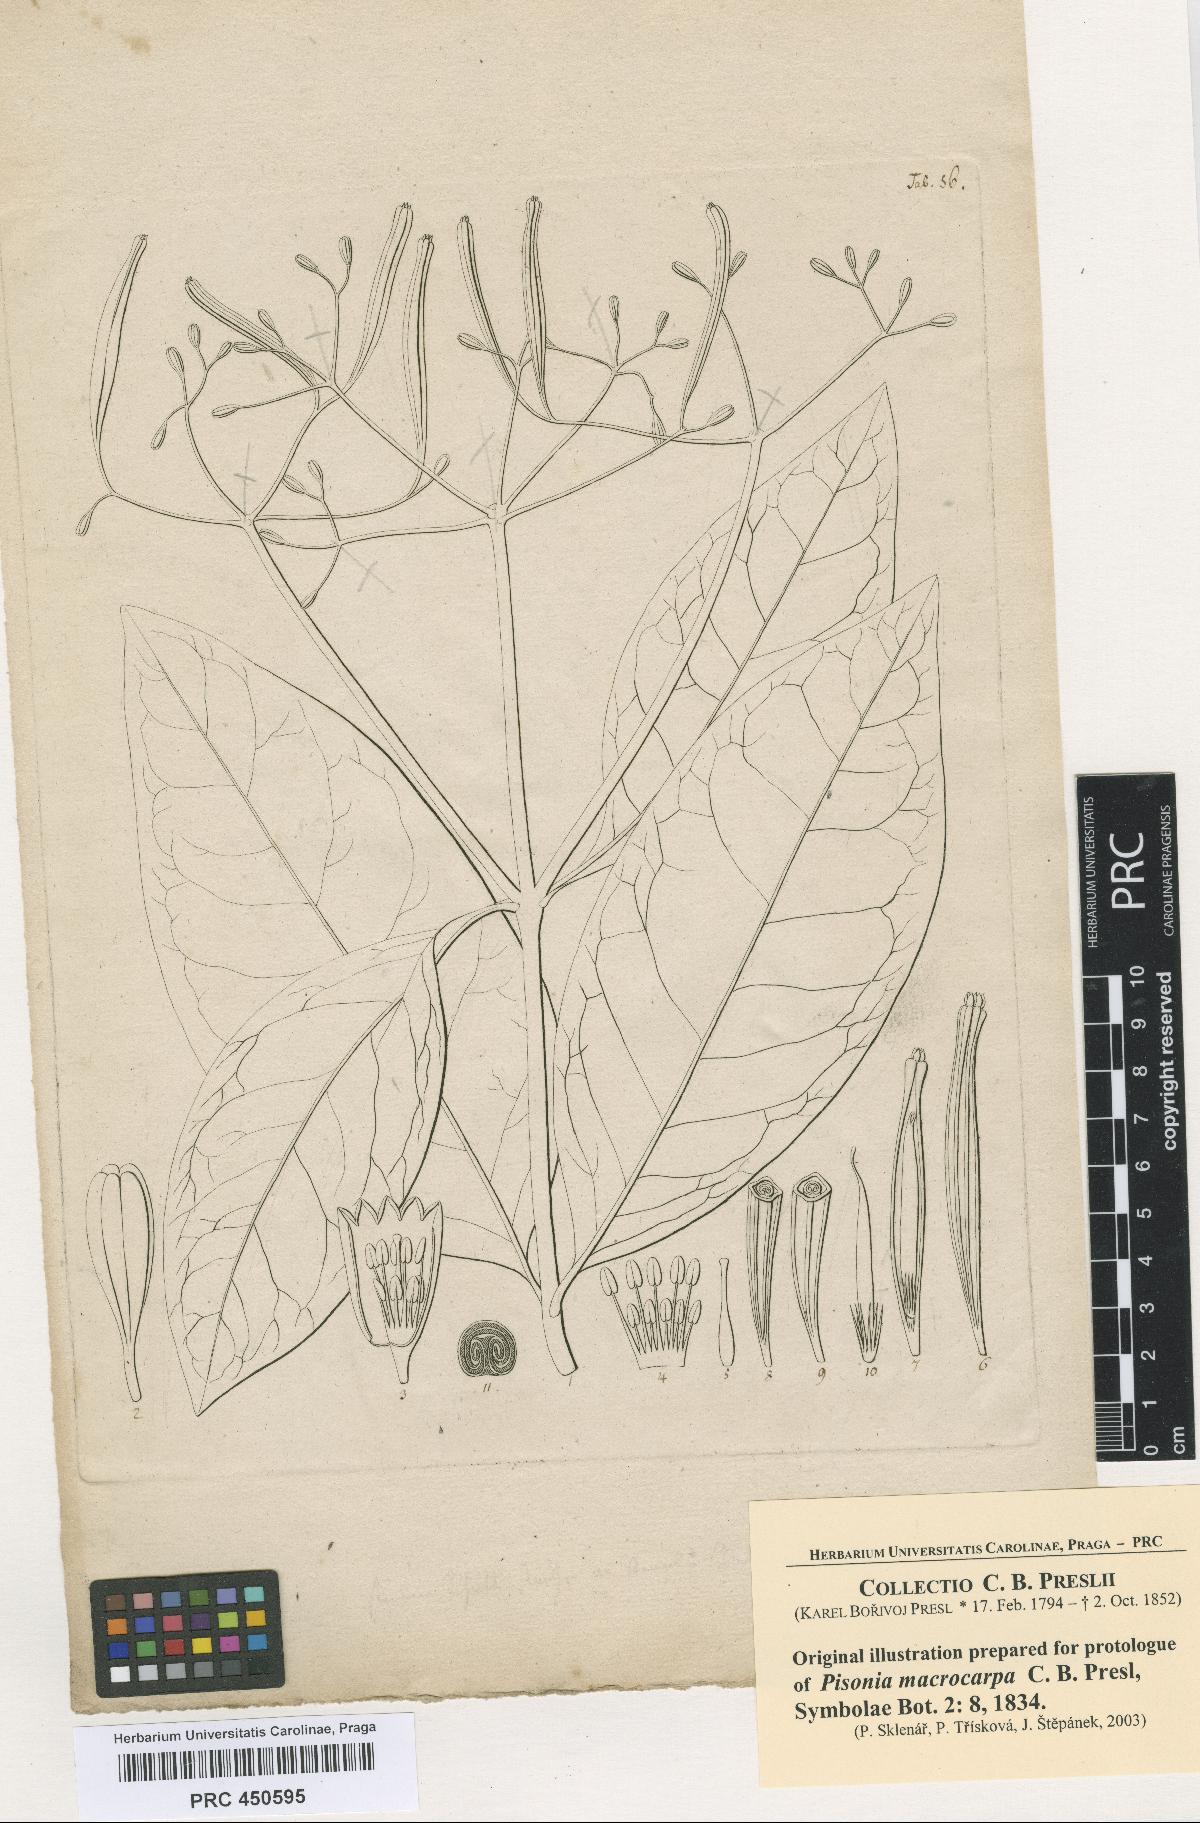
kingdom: Plantae
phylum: Tracheophyta
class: Magnoliopsida
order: Caryophyllales
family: Nyctaginaceae
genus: Ceodes
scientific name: Ceodes umbellifera
